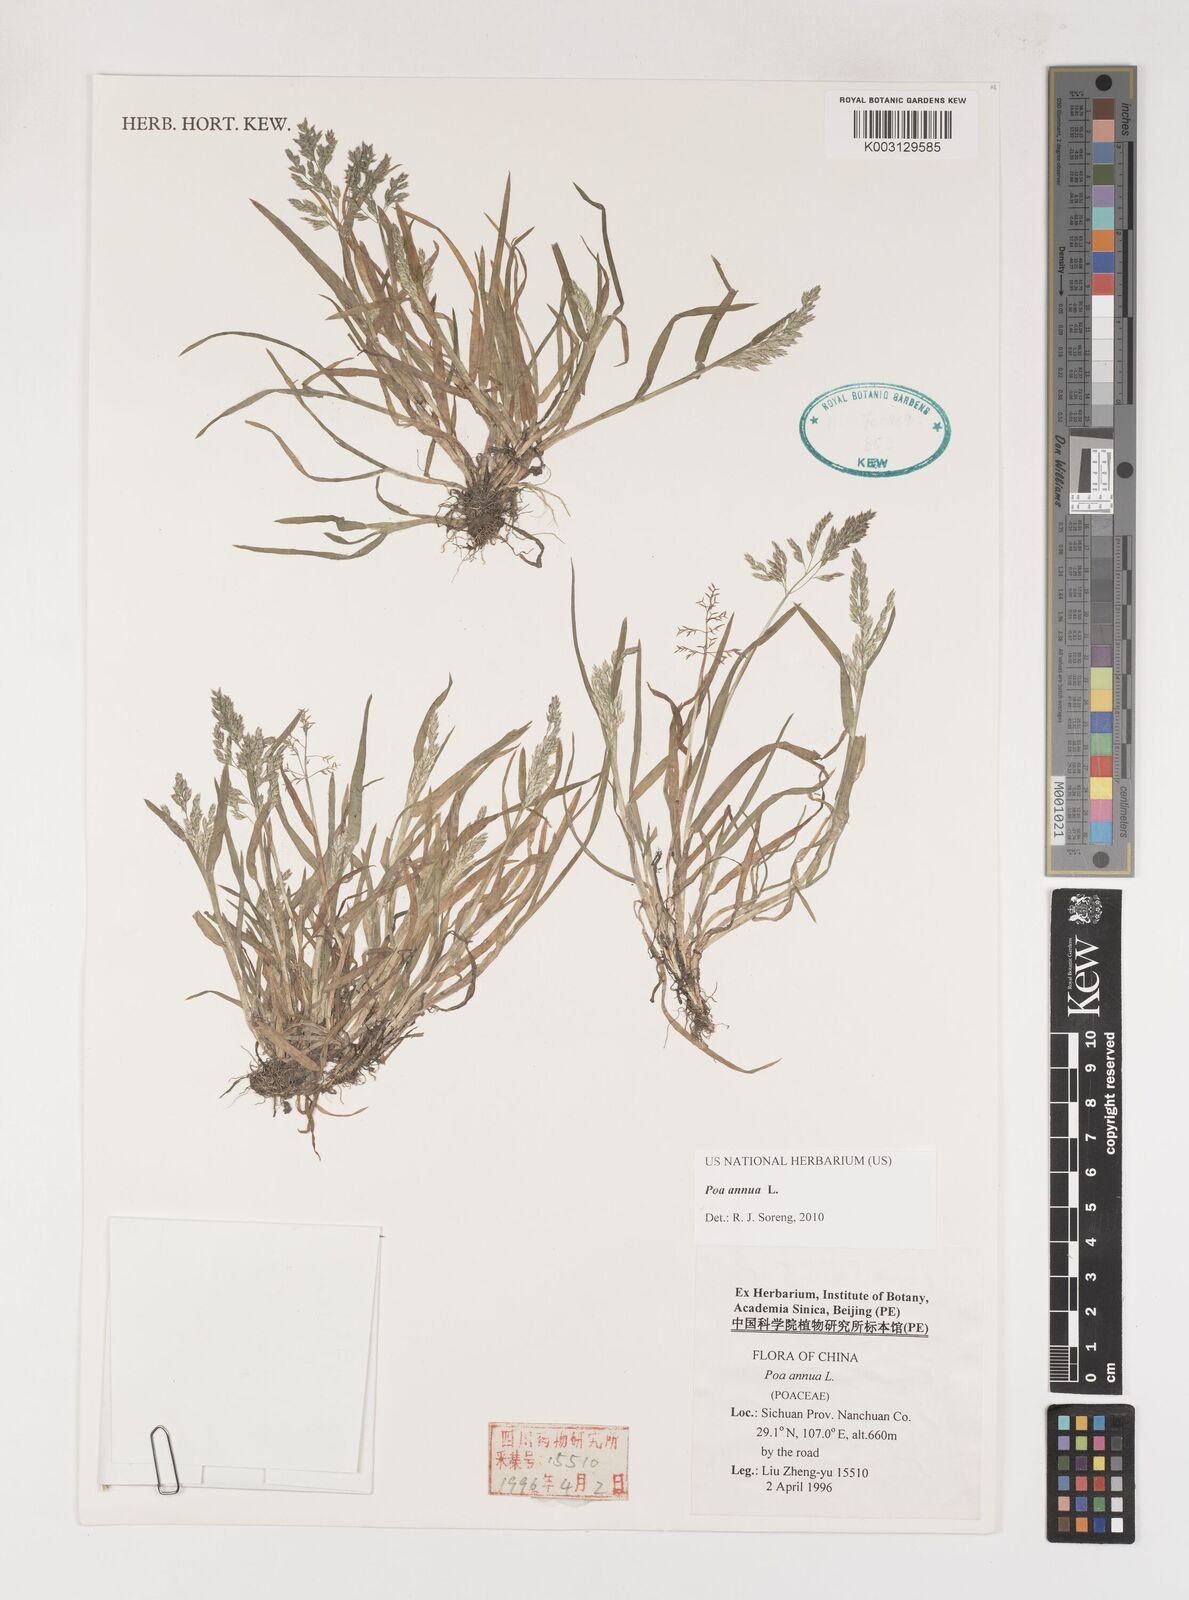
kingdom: Plantae
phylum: Tracheophyta
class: Liliopsida
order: Poales
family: Poaceae
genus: Poa
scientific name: Poa annua
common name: Annual bluegrass
